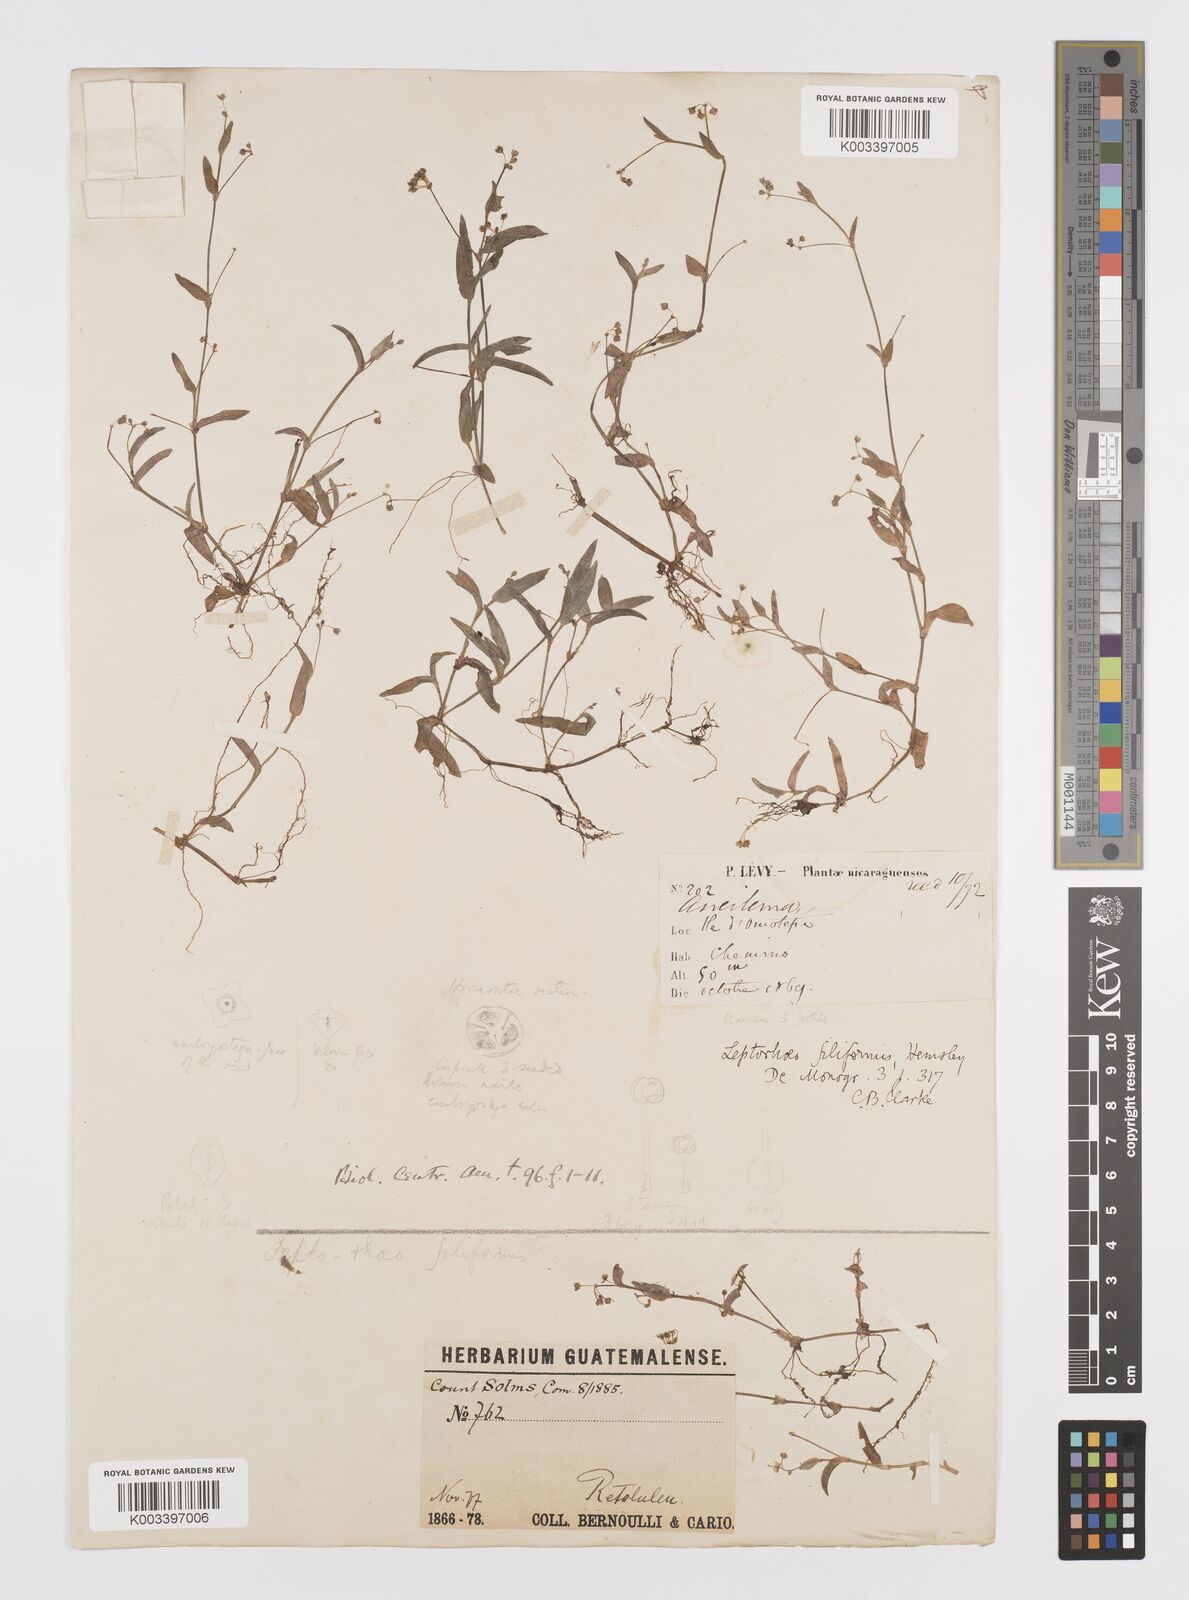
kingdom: Plantae
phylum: Tracheophyta
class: Liliopsida
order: Commelinales
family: Commelinaceae
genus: Callisia
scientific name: Callisia
